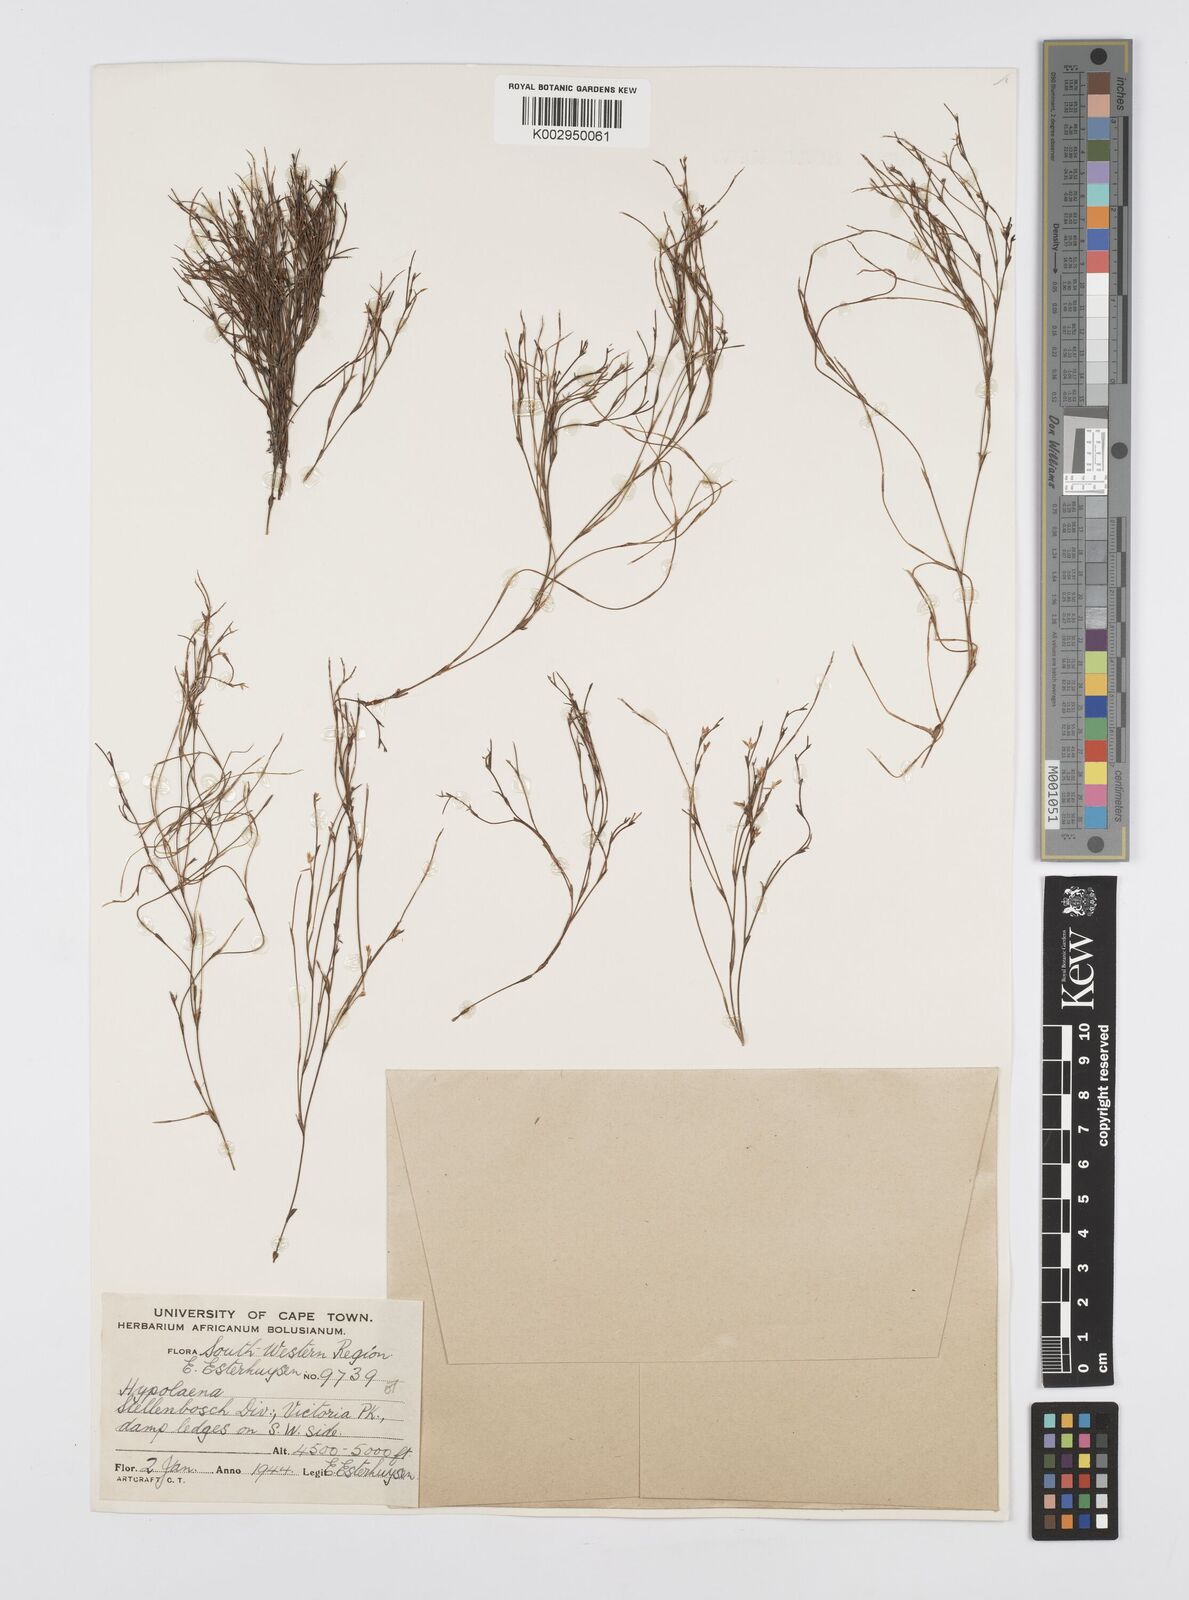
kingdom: Plantae
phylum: Tracheophyta
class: Liliopsida
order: Poales
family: Restionaceae
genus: Anthochortus
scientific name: Anthochortus laxiflorus
